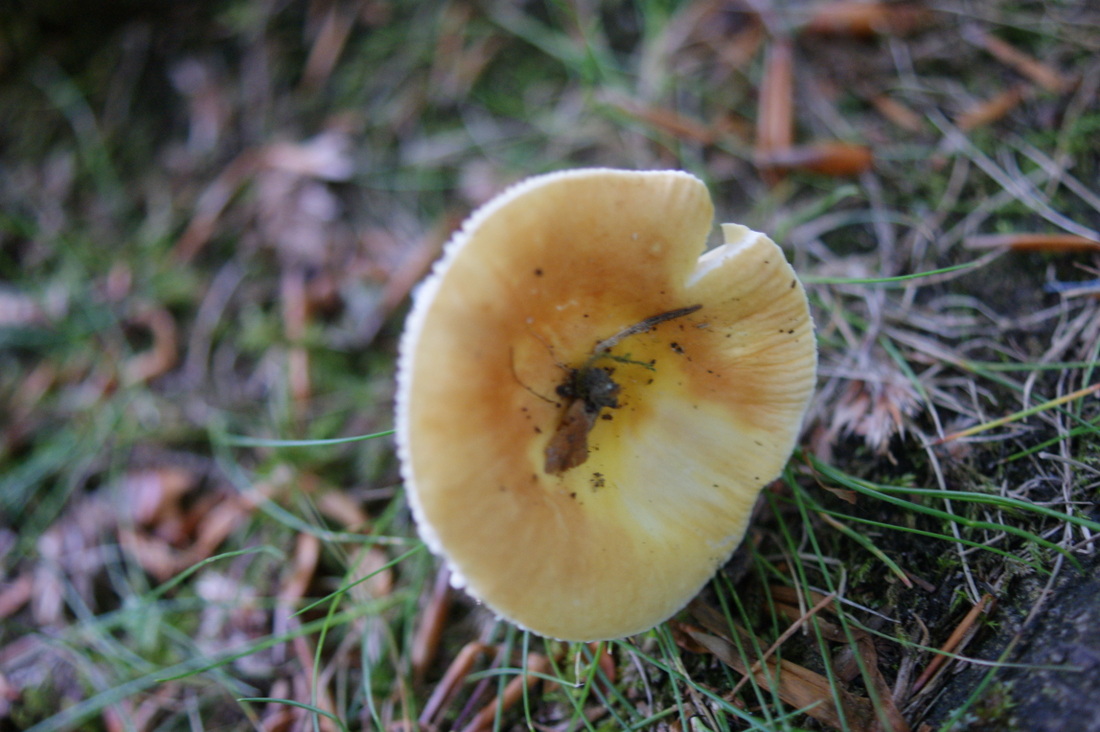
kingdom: Fungi
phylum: Basidiomycota
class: Agaricomycetes
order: Russulales
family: Russulaceae
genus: Russula
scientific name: Russula risigallina
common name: abrikos-skørhat
